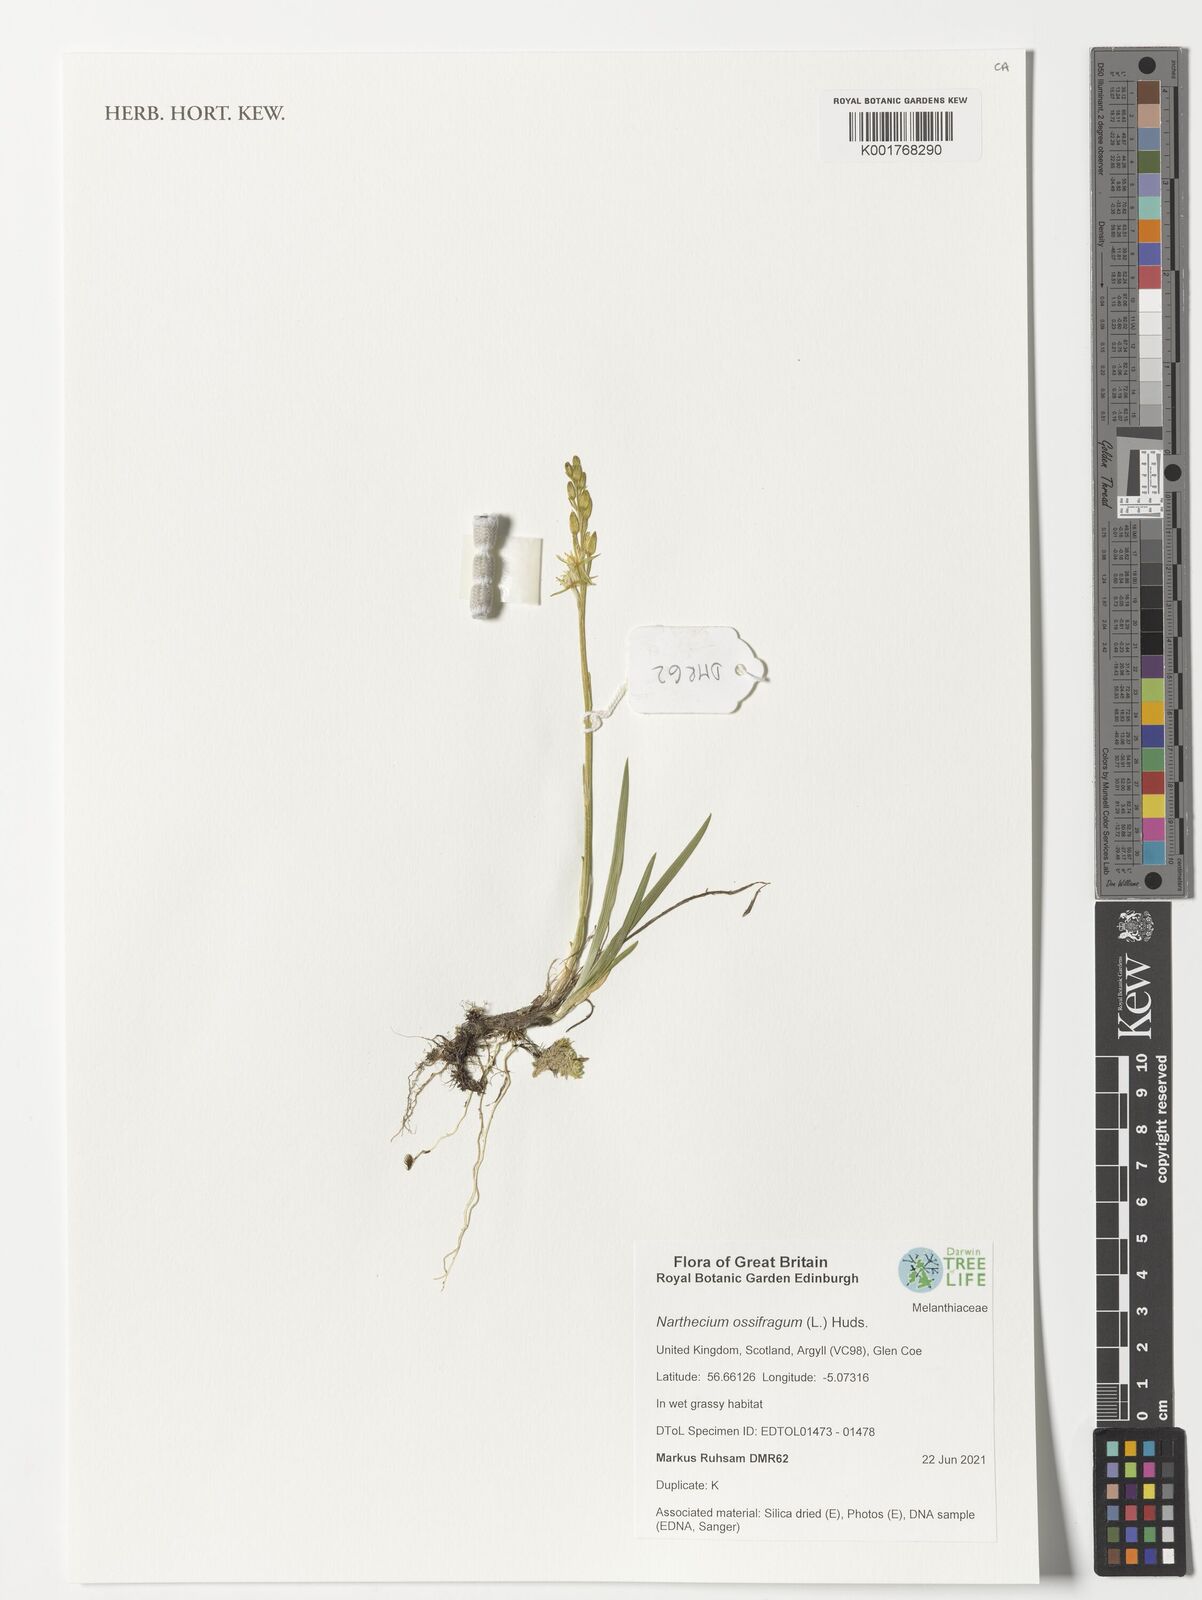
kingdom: Plantae
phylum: Tracheophyta
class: Liliopsida
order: Dioscoreales
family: Nartheciaceae
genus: Narthecium
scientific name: Narthecium ossifragum
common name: Bog asphodel
